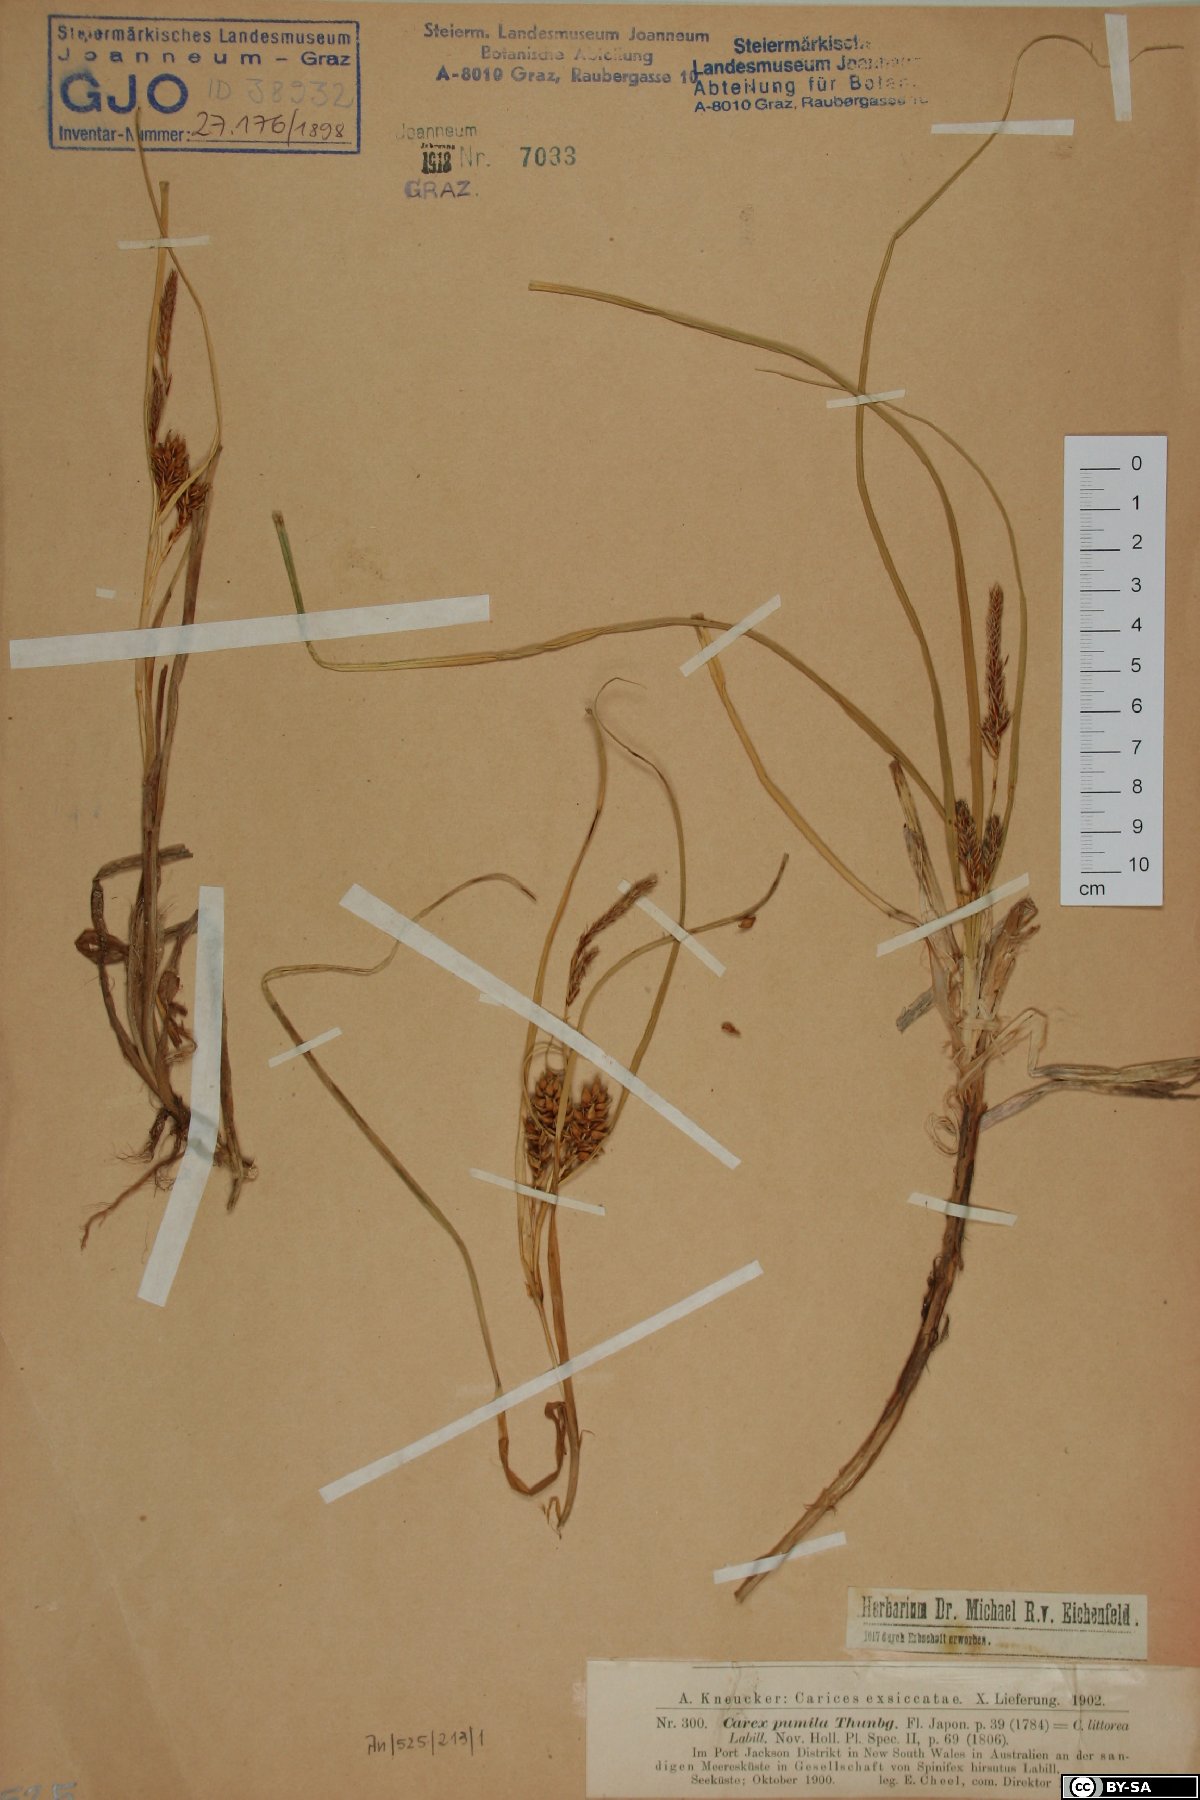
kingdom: Plantae
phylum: Tracheophyta
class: Liliopsida
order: Poales
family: Cyperaceae
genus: Carex
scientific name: Carex pumila
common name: Dwarf sedge
